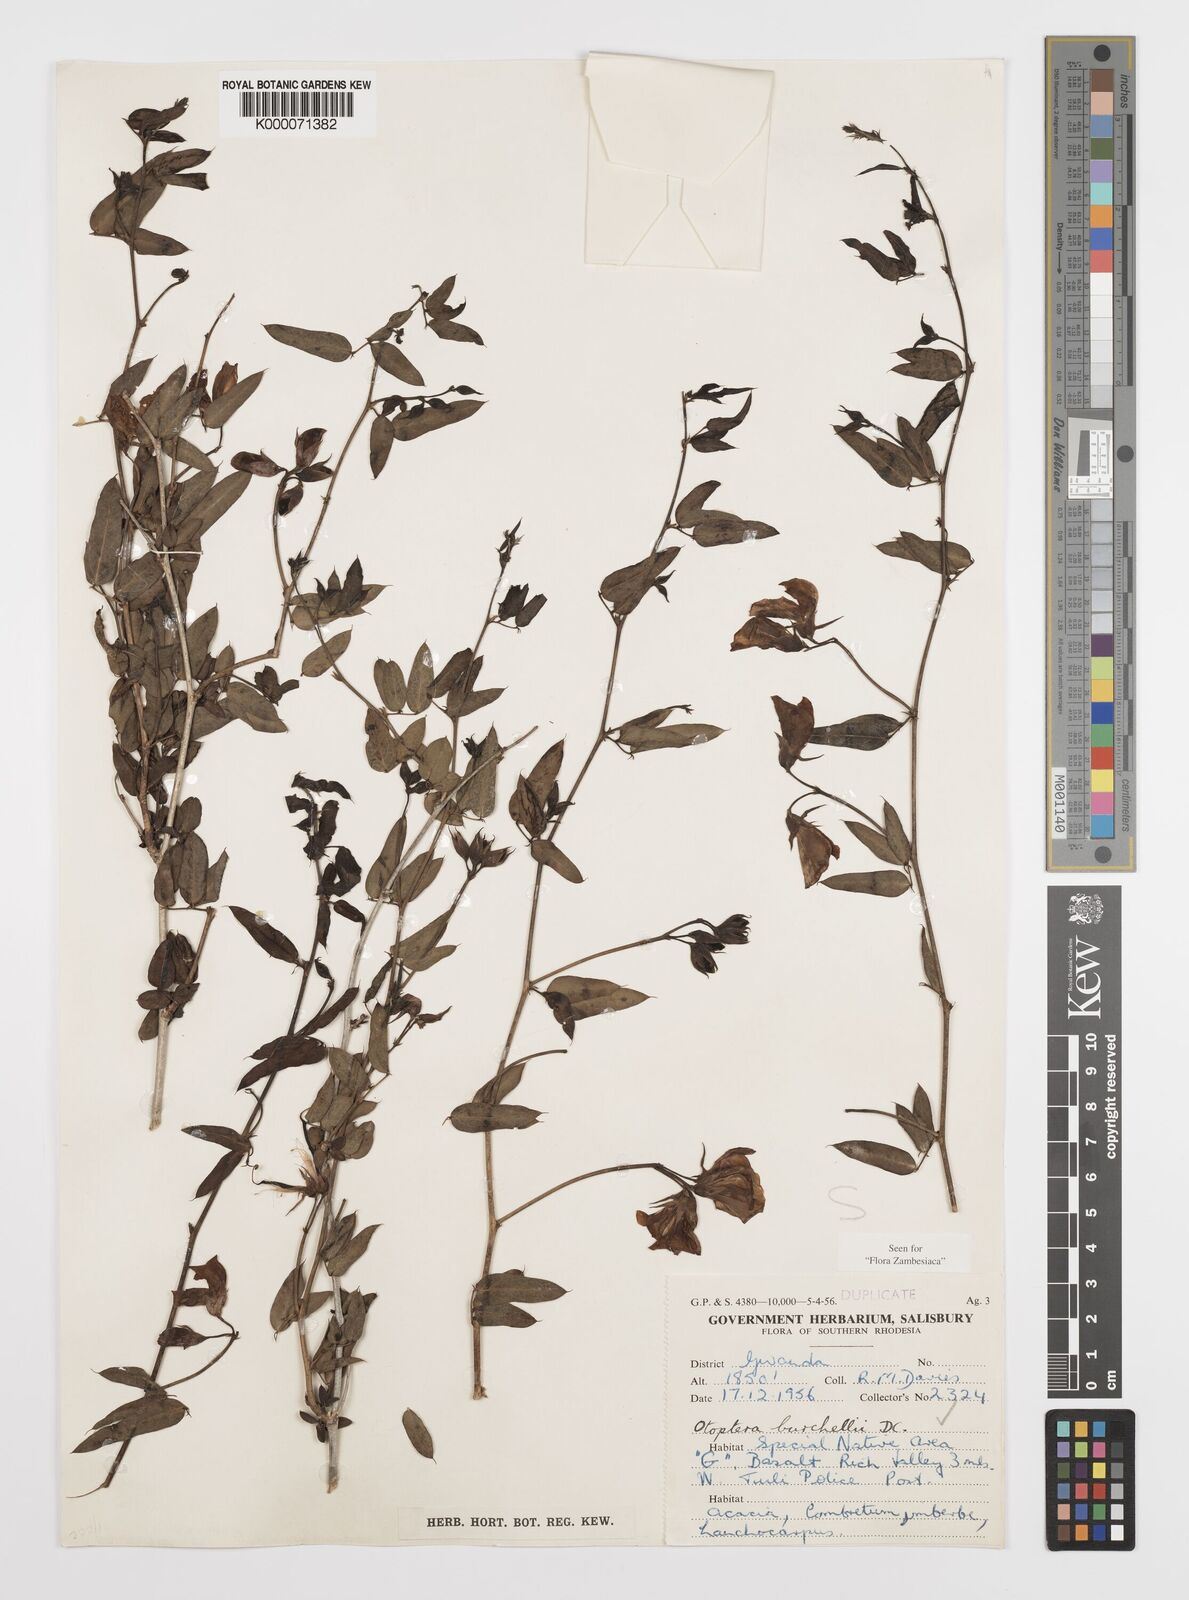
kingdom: Plantae
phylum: Tracheophyta
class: Magnoliopsida
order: Fabales
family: Fabaceae
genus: Otoptera
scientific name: Otoptera burchellii
